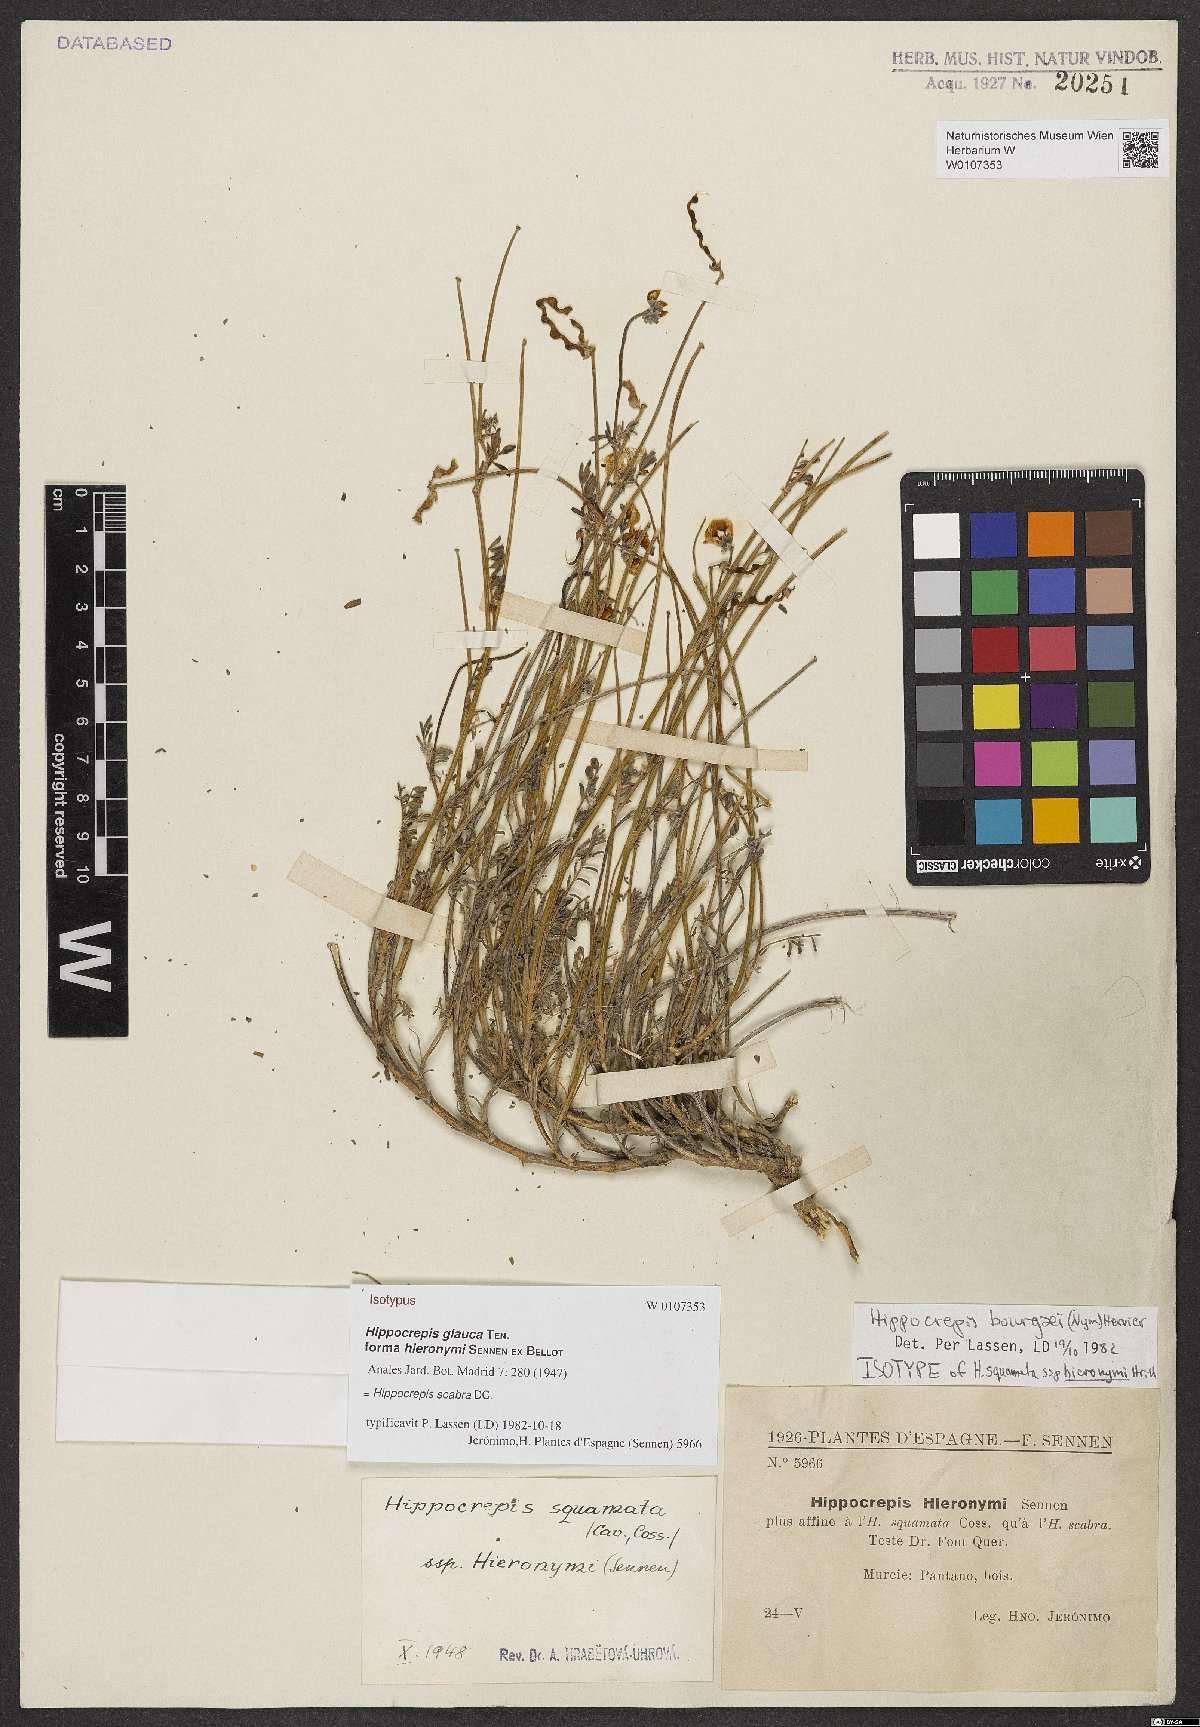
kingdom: Plantae
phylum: Tracheophyta
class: Magnoliopsida
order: Fabales
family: Fabaceae
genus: Hippocrepis
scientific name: Hippocrepis scabra
